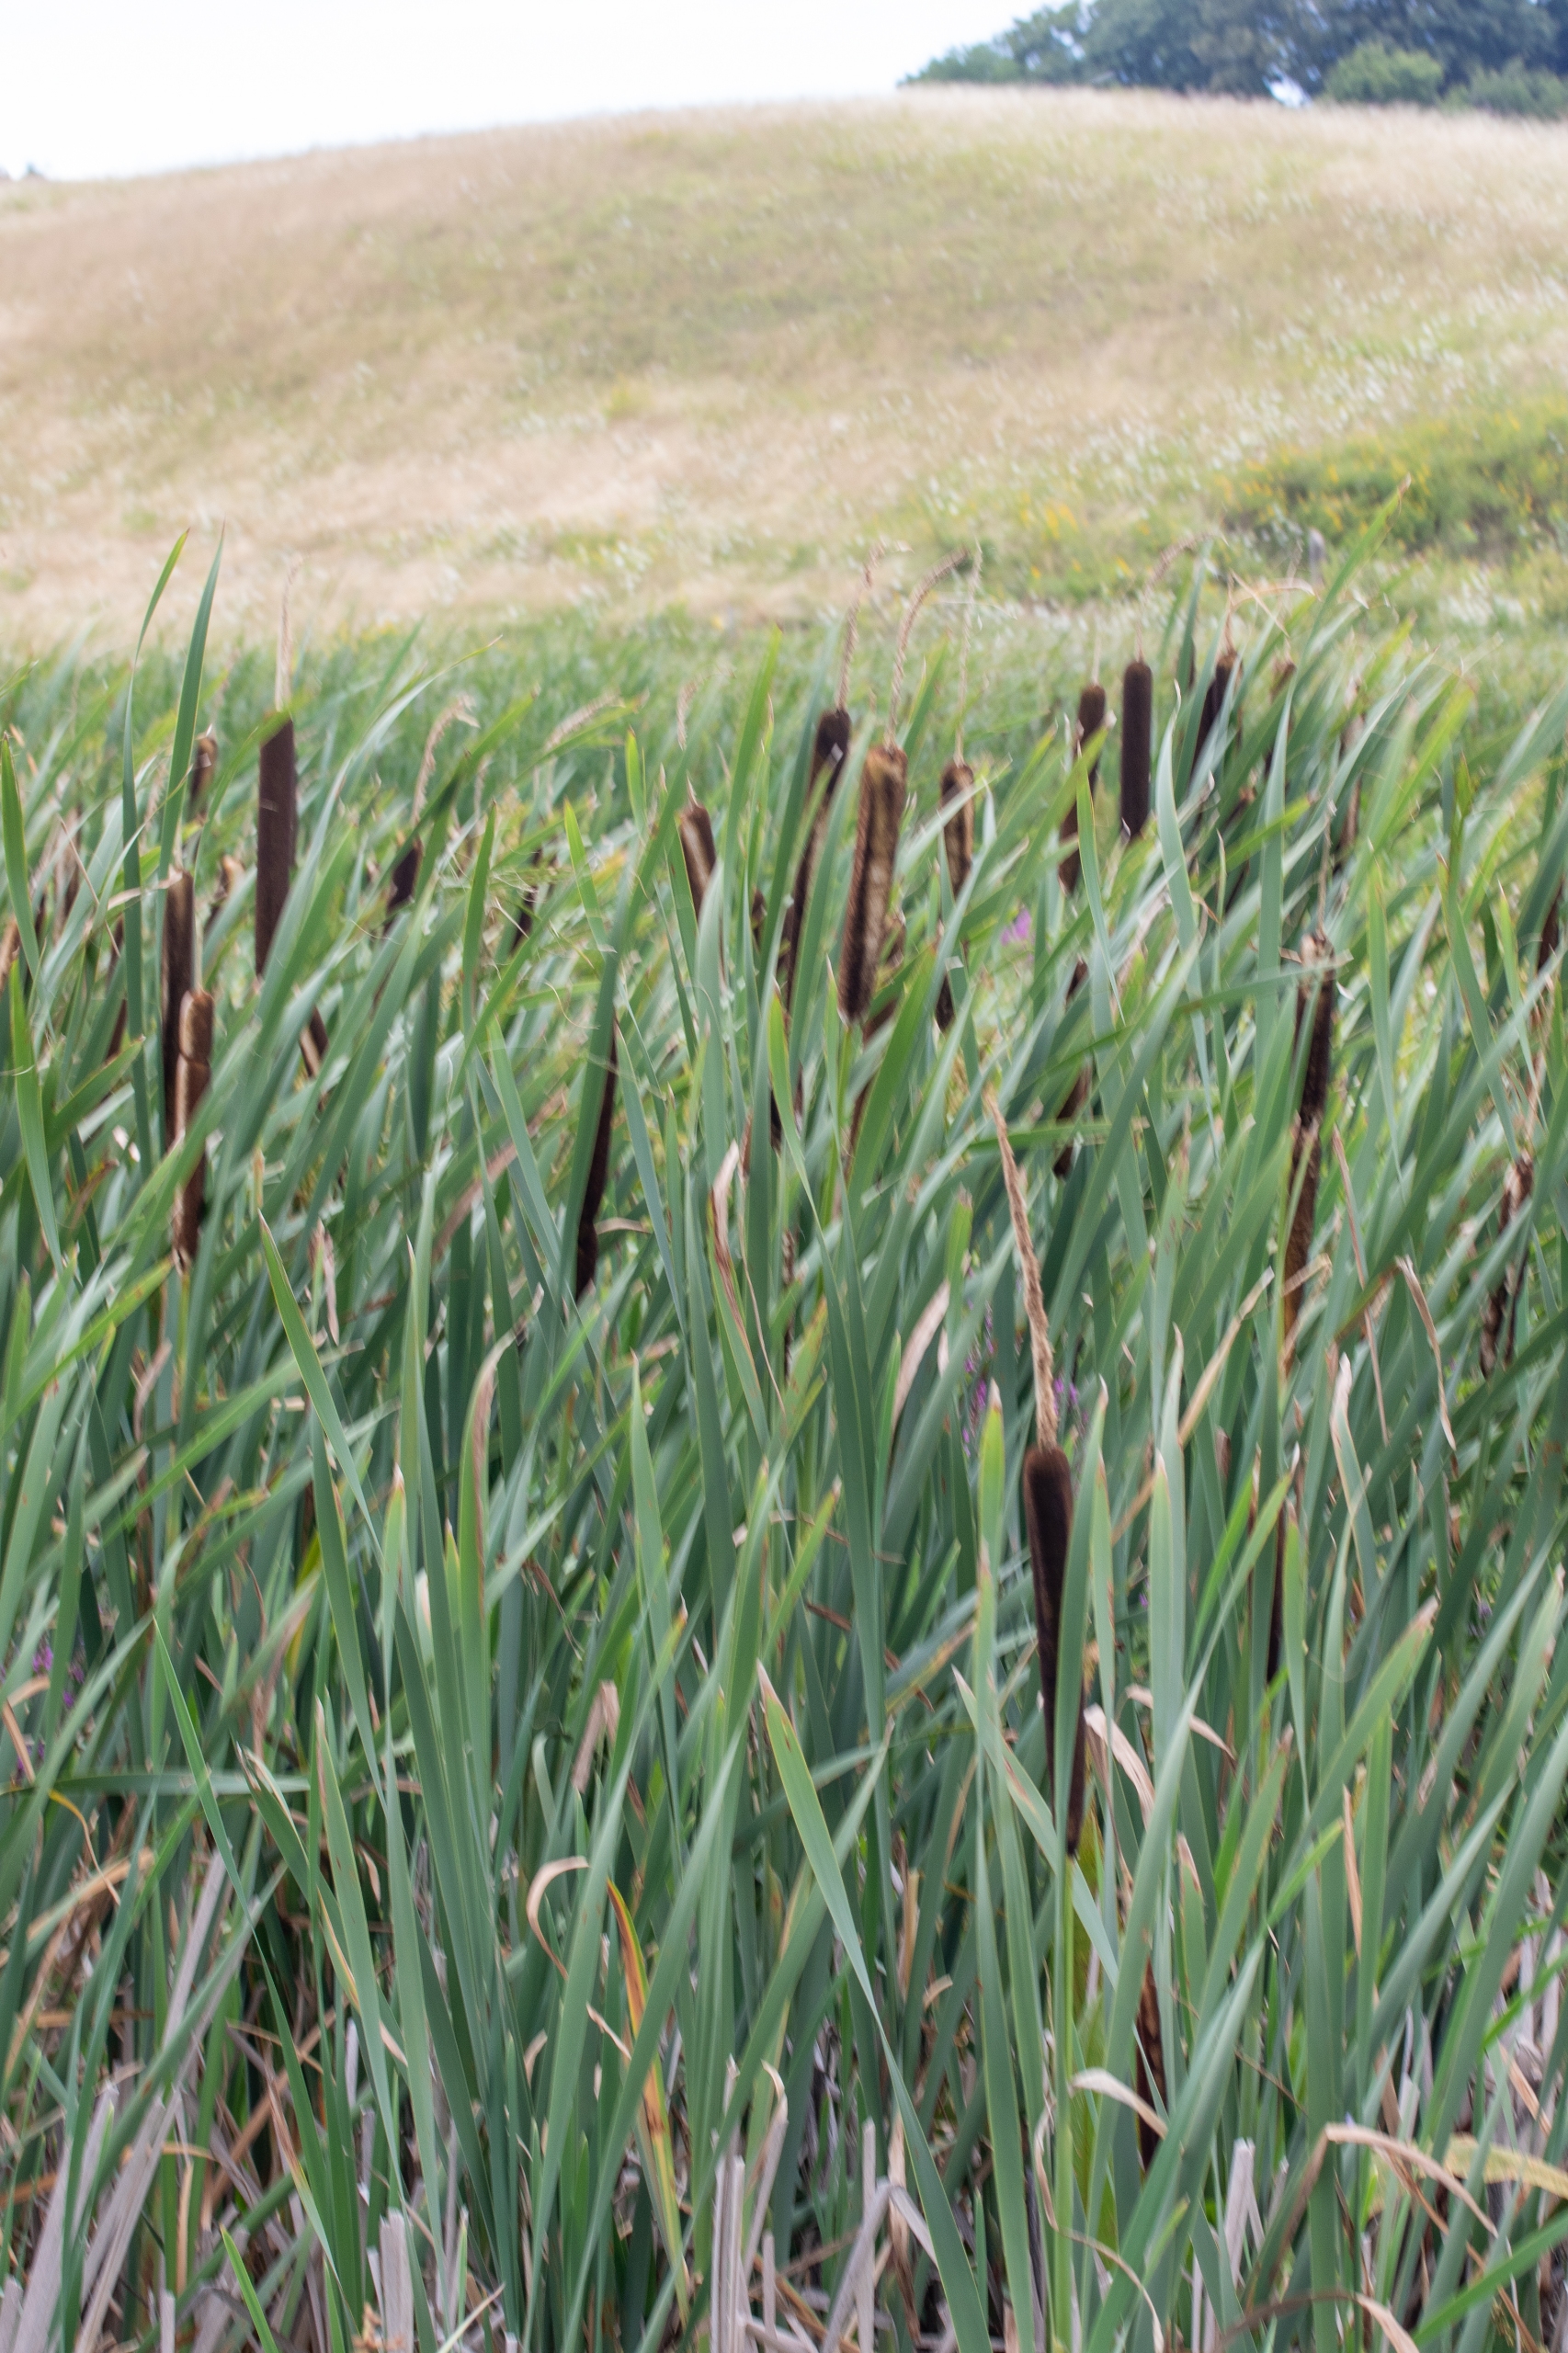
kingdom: Plantae
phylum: Tracheophyta
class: Liliopsida
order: Poales
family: Typhaceae
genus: Typha
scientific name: Typha latifolia
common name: Bredbladet dunhammer
